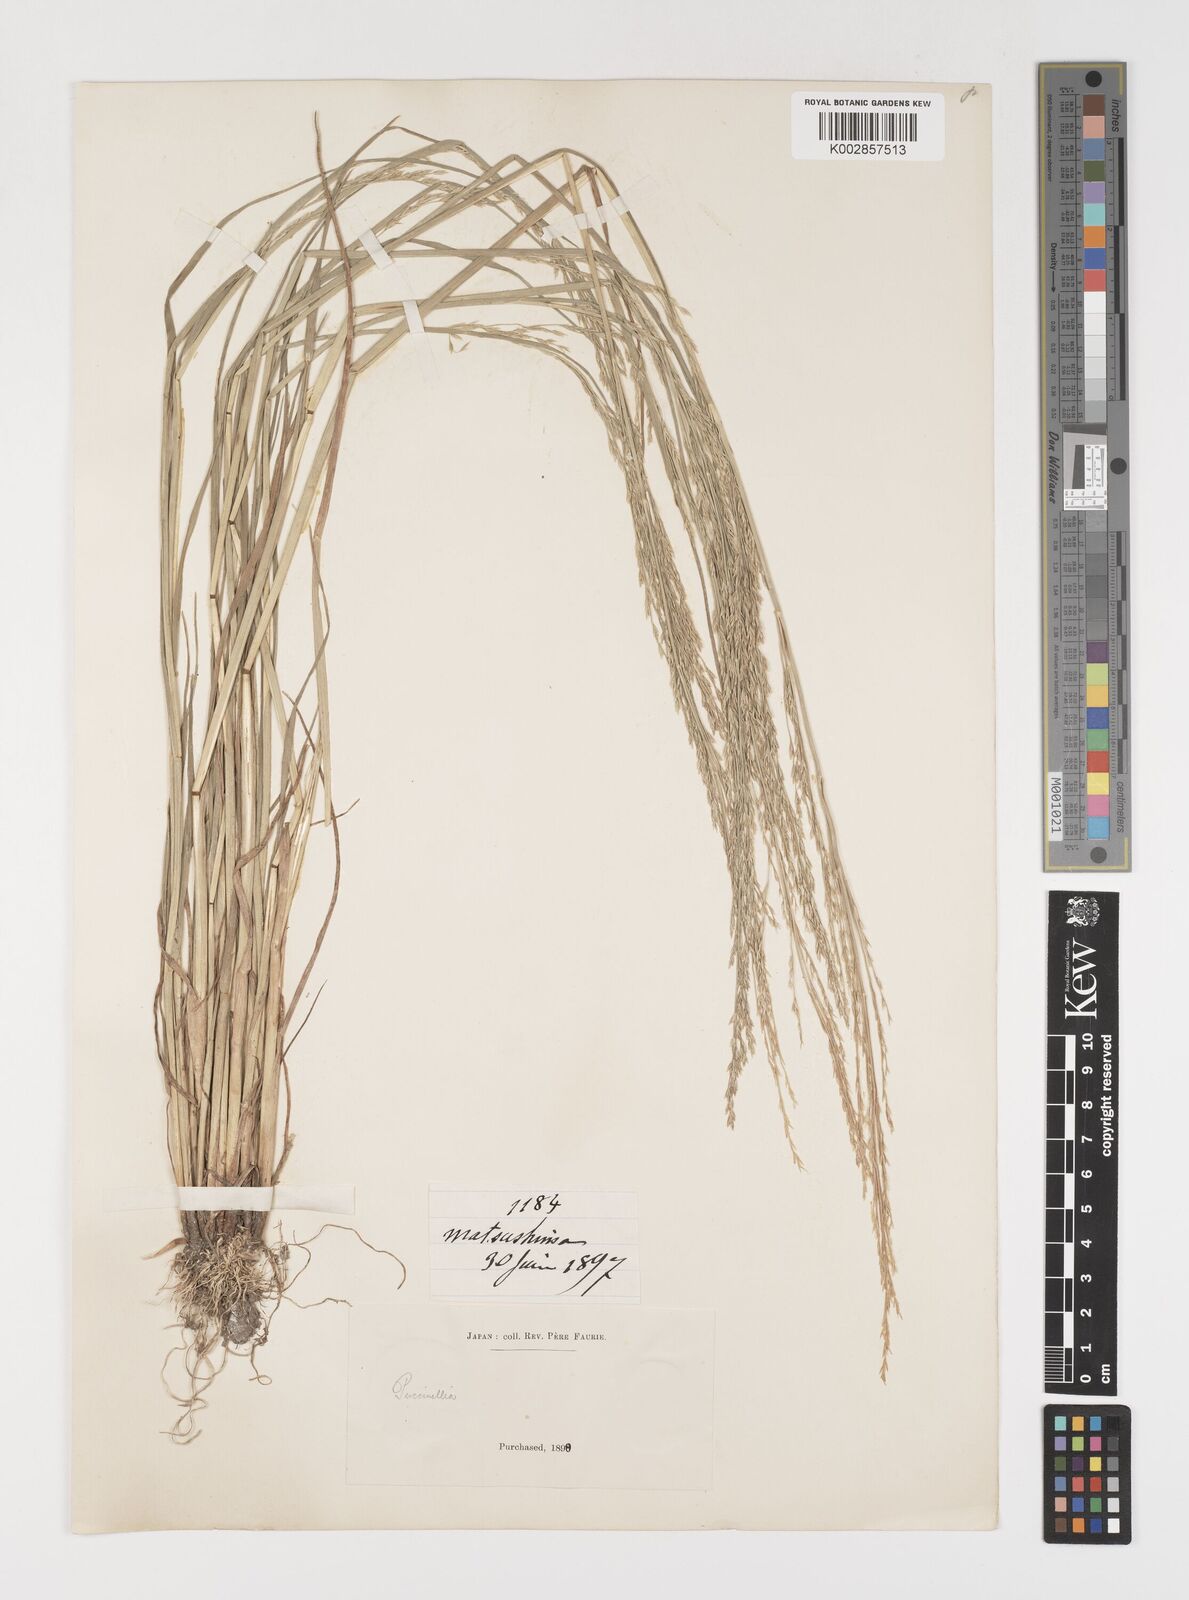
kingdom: Plantae
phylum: Tracheophyta
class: Liliopsida
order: Poales
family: Poaceae
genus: Puccinellia
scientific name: Puccinellia
